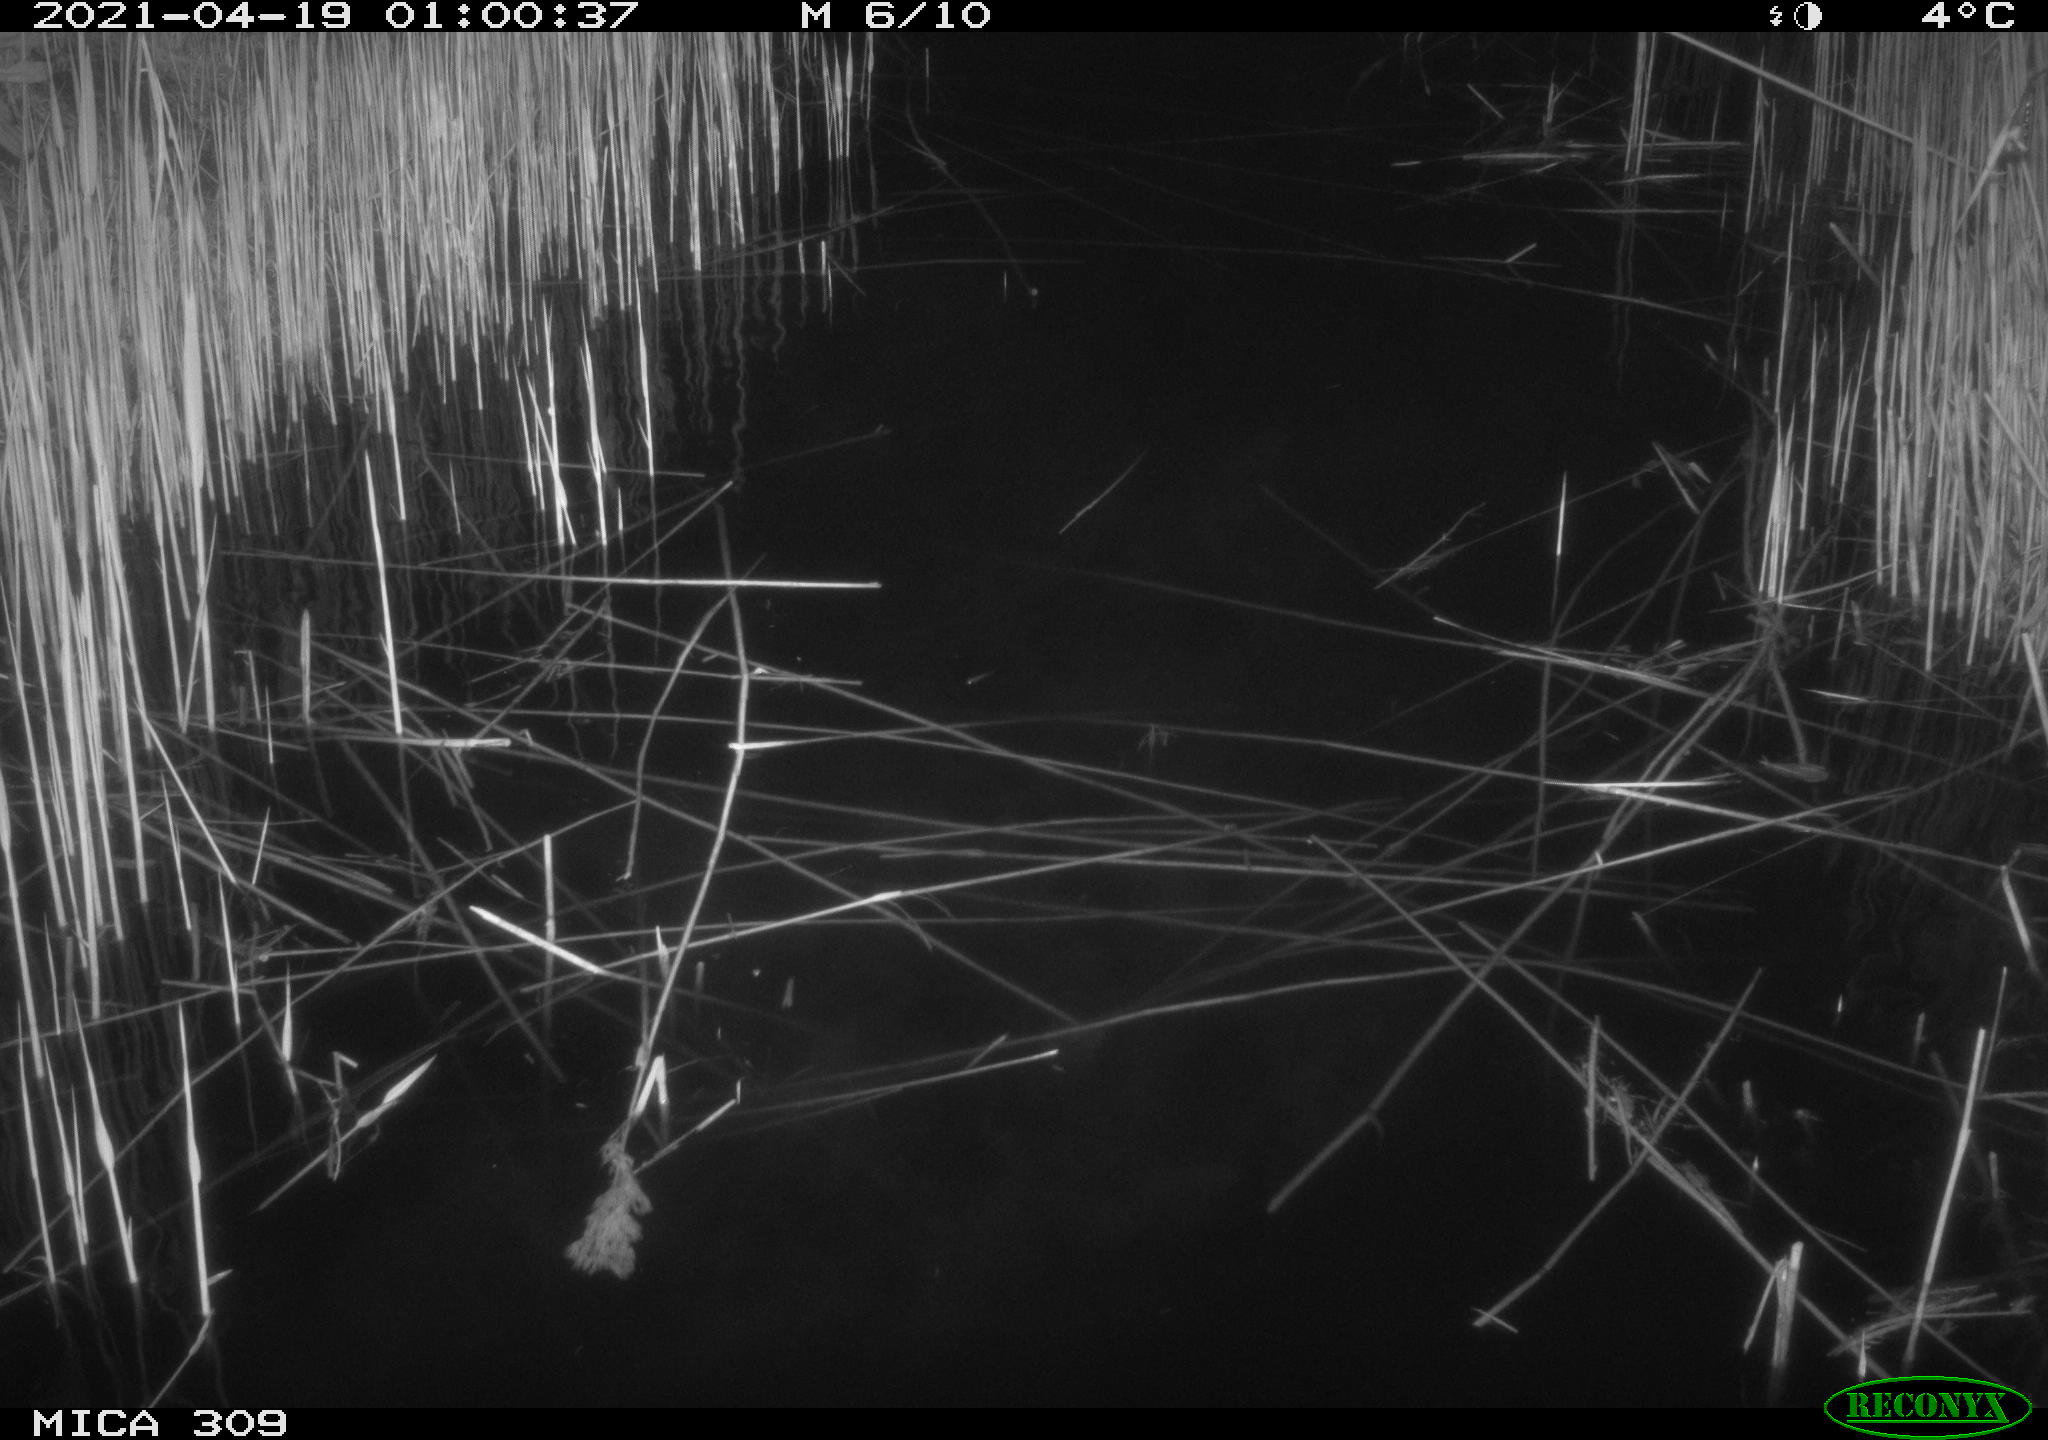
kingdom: Animalia
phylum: Chordata
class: Aves
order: Anseriformes
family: Anatidae
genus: Anas
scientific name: Anas platyrhynchos
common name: Mallard
